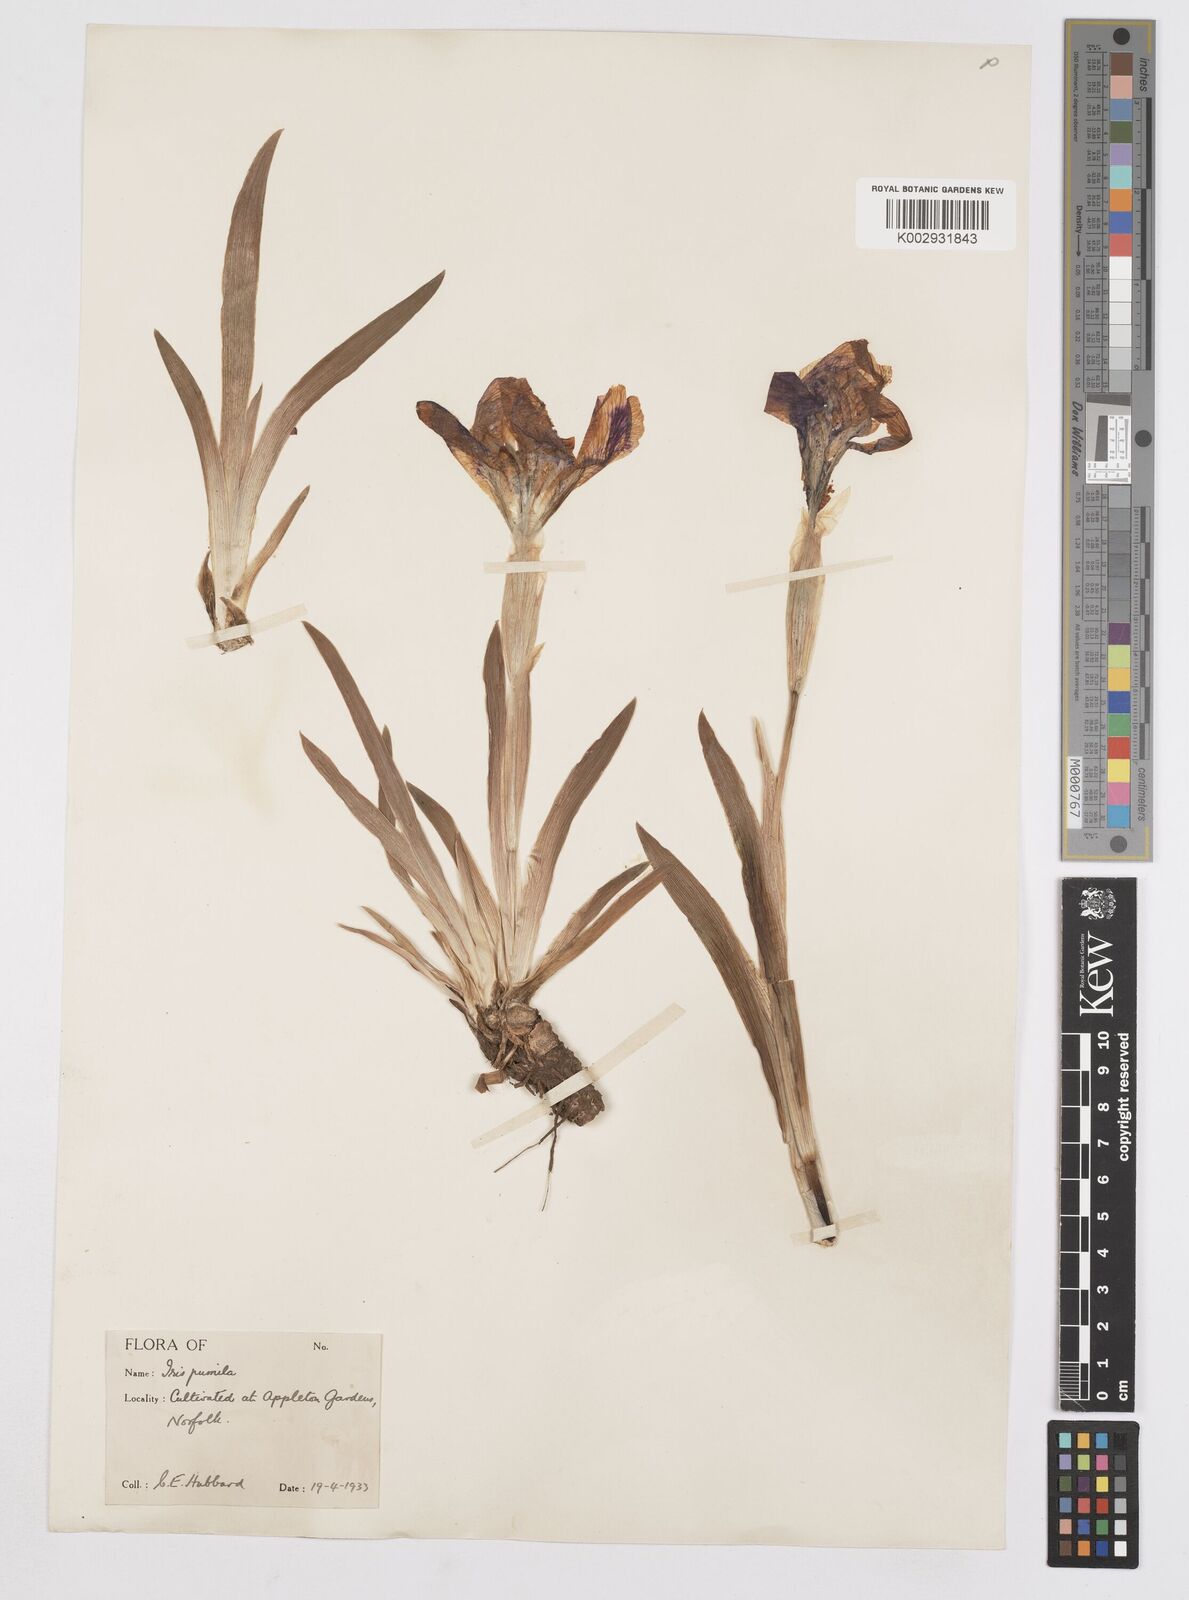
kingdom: Plantae
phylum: Tracheophyta
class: Liliopsida
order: Asparagales
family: Iridaceae
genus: Iris
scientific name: Iris lutescens
